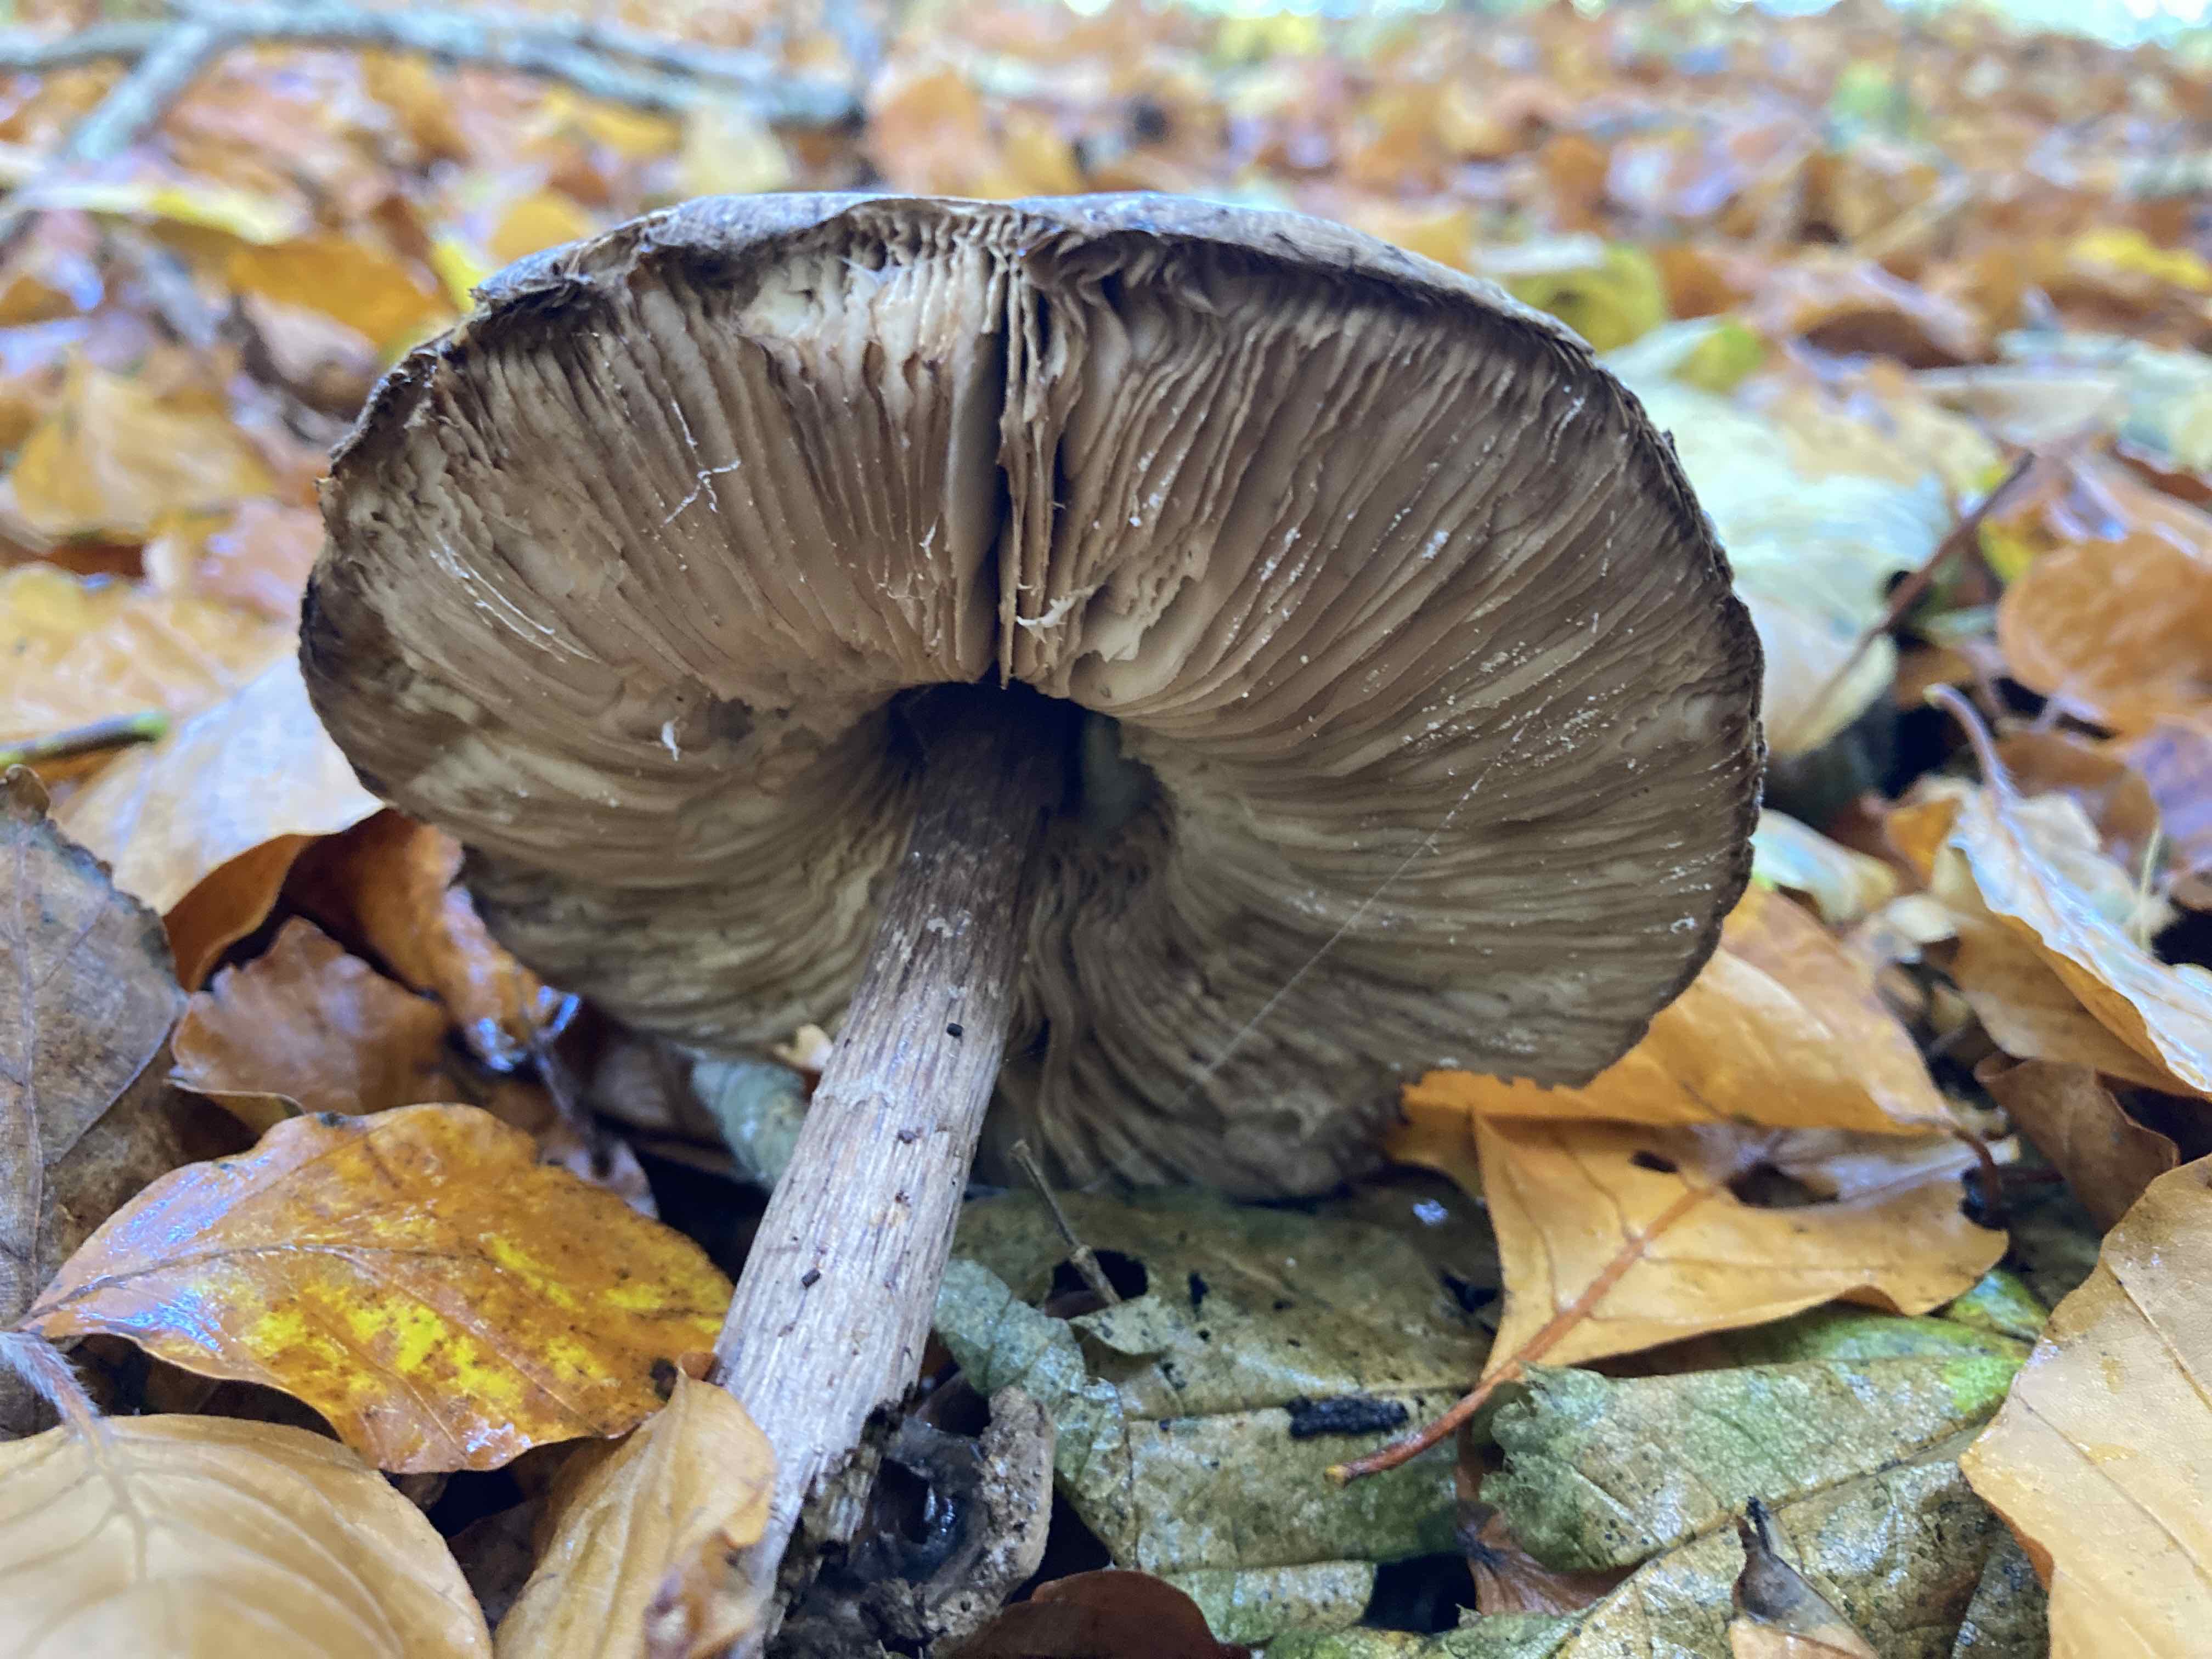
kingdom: Fungi
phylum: Basidiomycota
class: Agaricomycetes
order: Agaricales
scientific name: Agaricales
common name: champignonordenen
